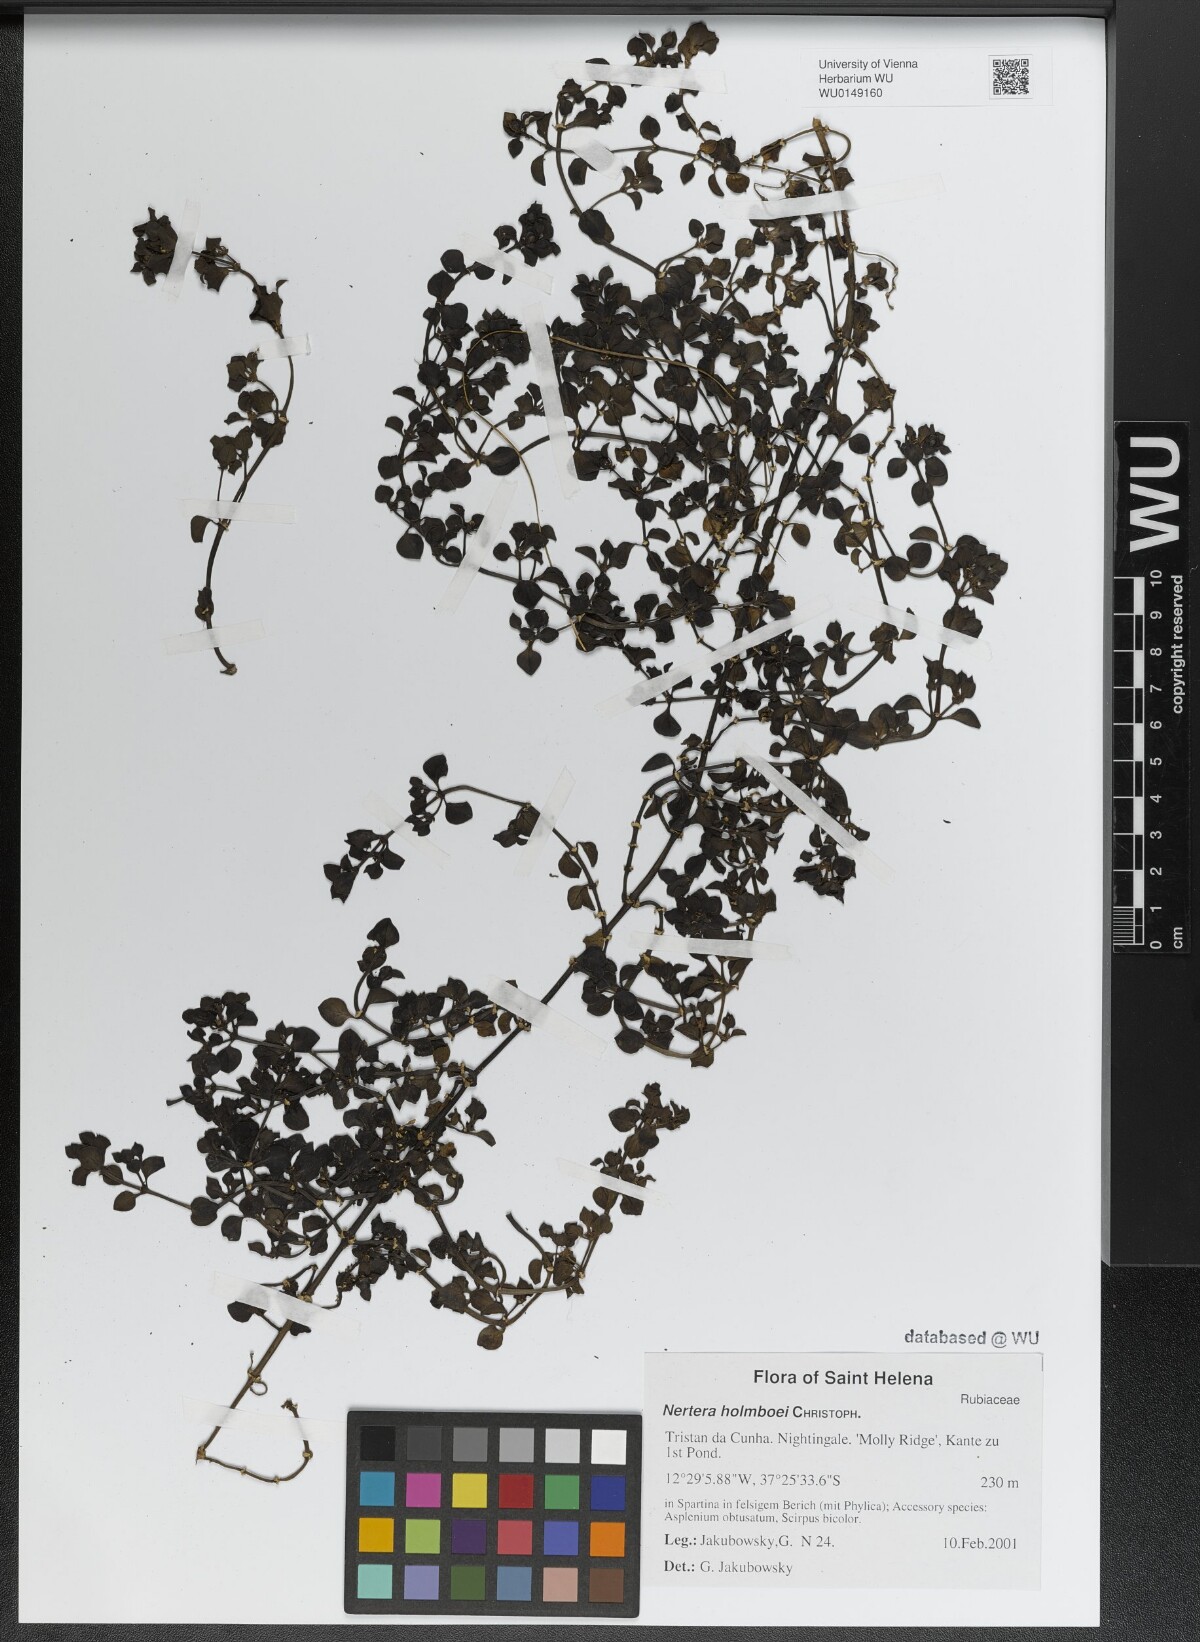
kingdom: Plantae
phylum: Tracheophyta
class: Magnoliopsida
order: Gentianales
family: Rubiaceae
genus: Nertera
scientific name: Nertera holmboei
